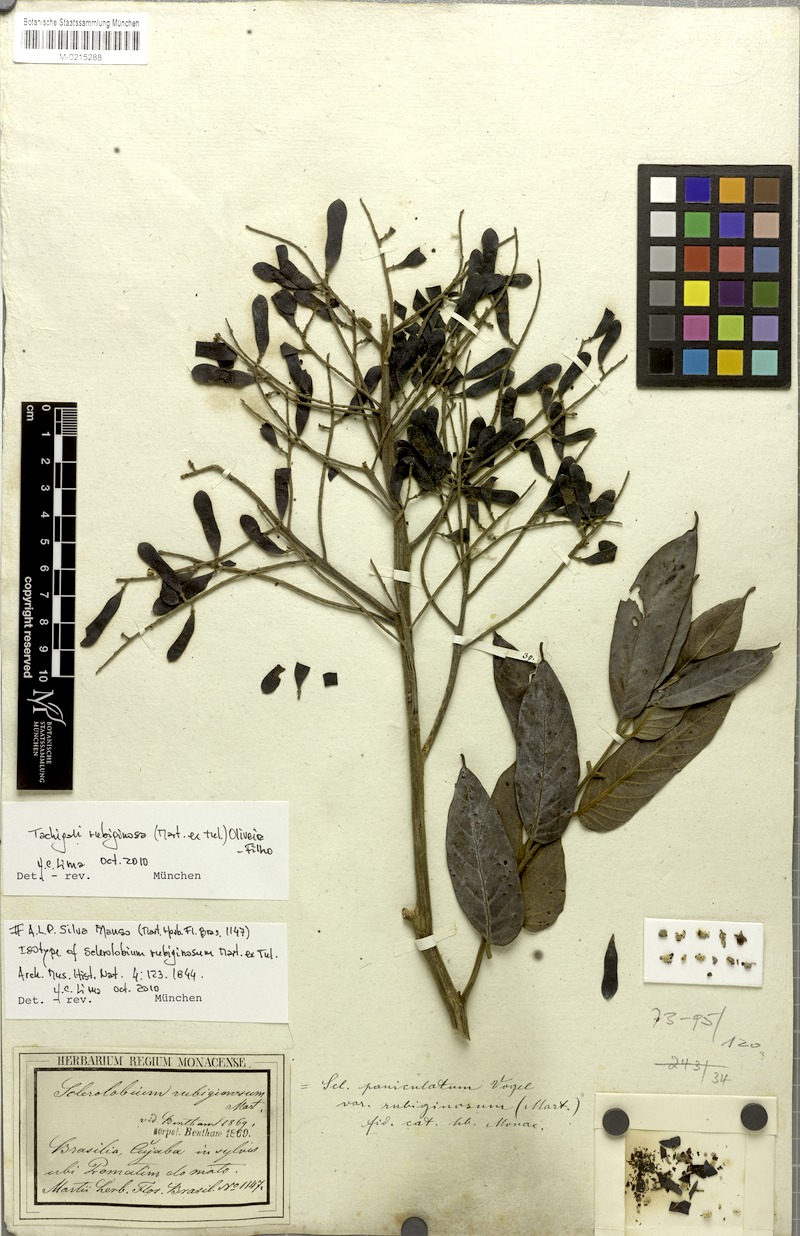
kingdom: Plantae
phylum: Tracheophyta
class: Magnoliopsida
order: Fabales
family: Fabaceae
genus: Tachigali
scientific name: Tachigali rubiginosa
